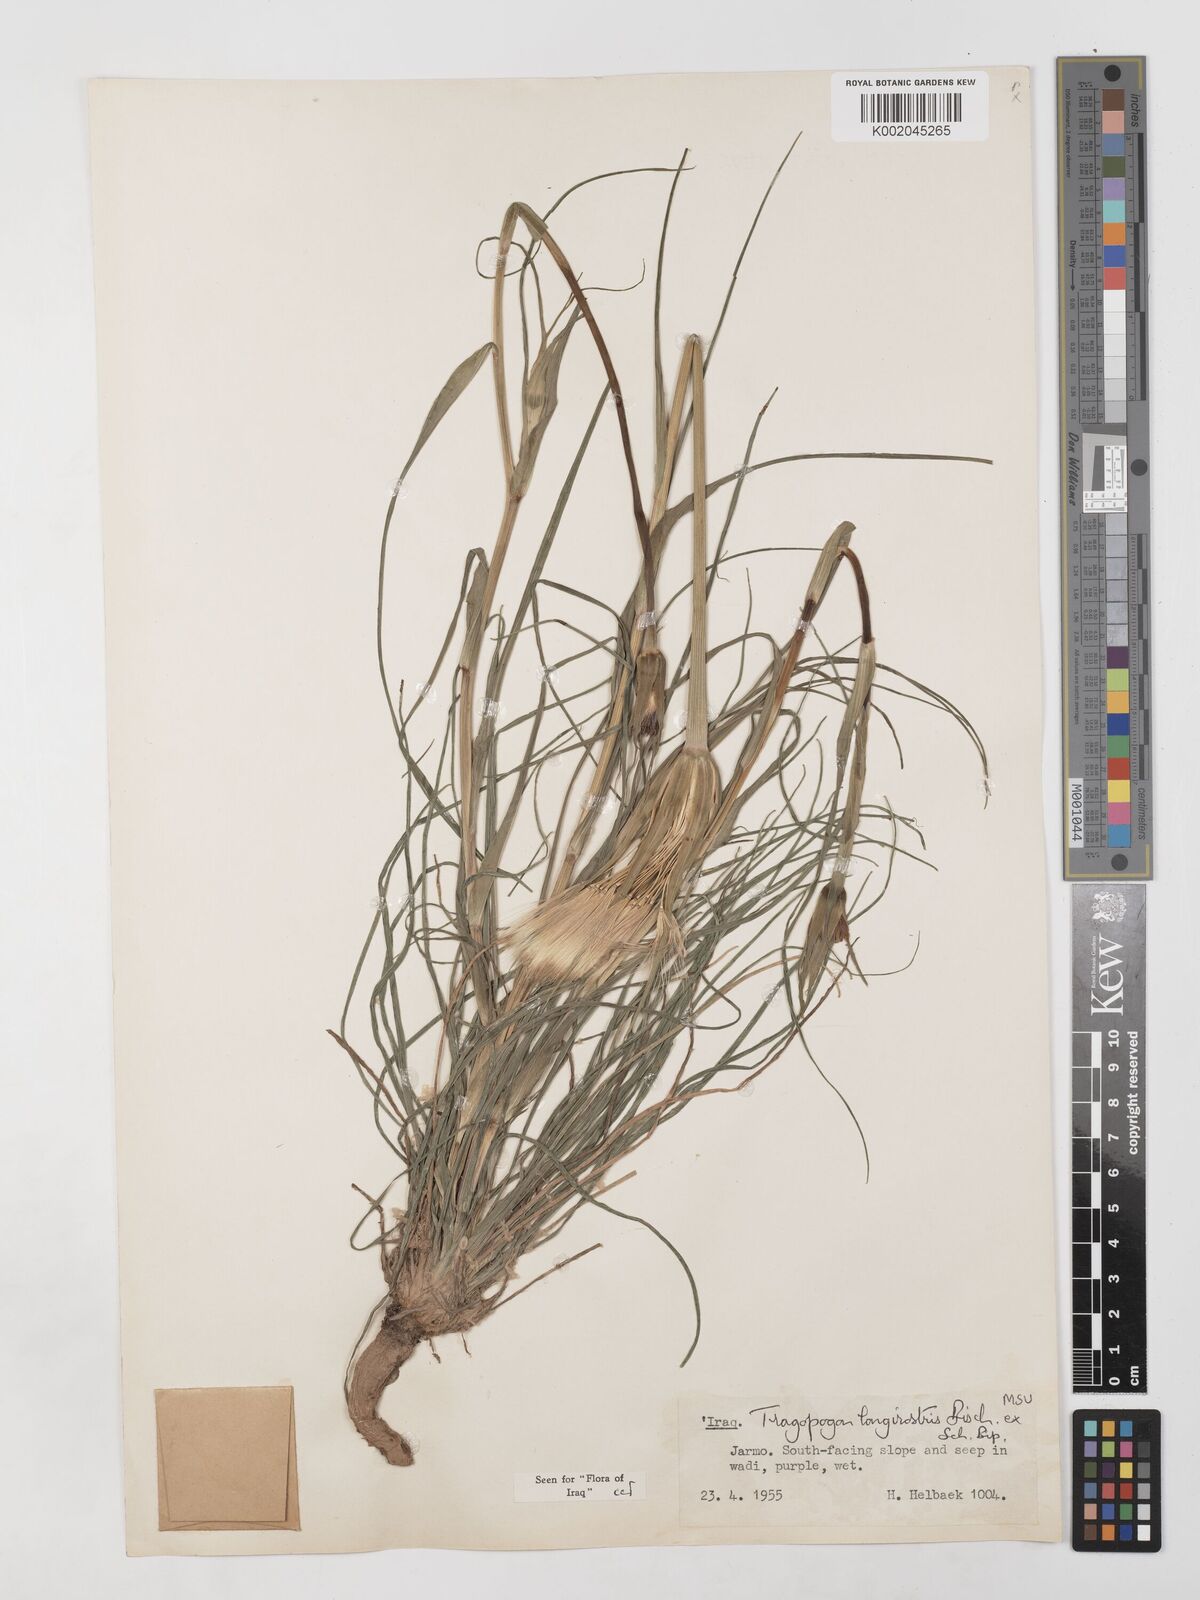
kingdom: Plantae
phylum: Tracheophyta
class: Magnoliopsida
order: Asterales
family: Asteraceae
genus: Tragopogon
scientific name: Tragopogon coelesyriacus
